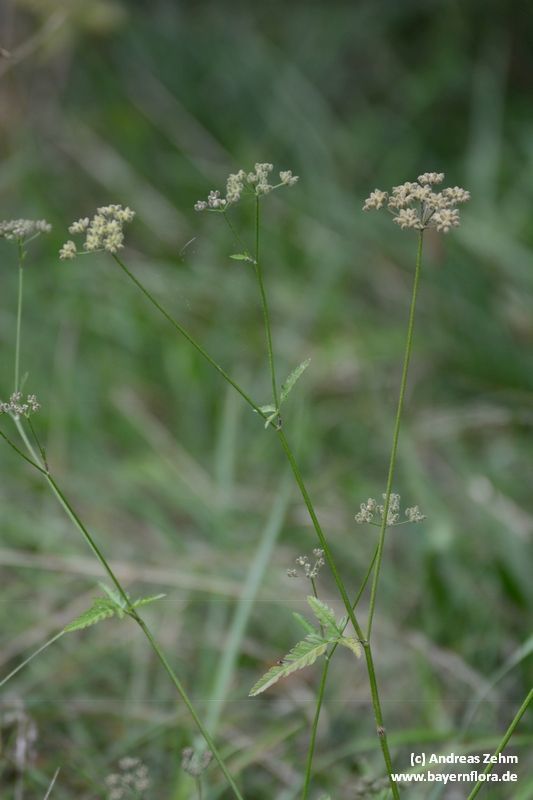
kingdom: Plantae
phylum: Tracheophyta
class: Magnoliopsida
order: Apiales
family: Apiaceae
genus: Torilis
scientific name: Torilis japonica
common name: Upright hedge-parsley
